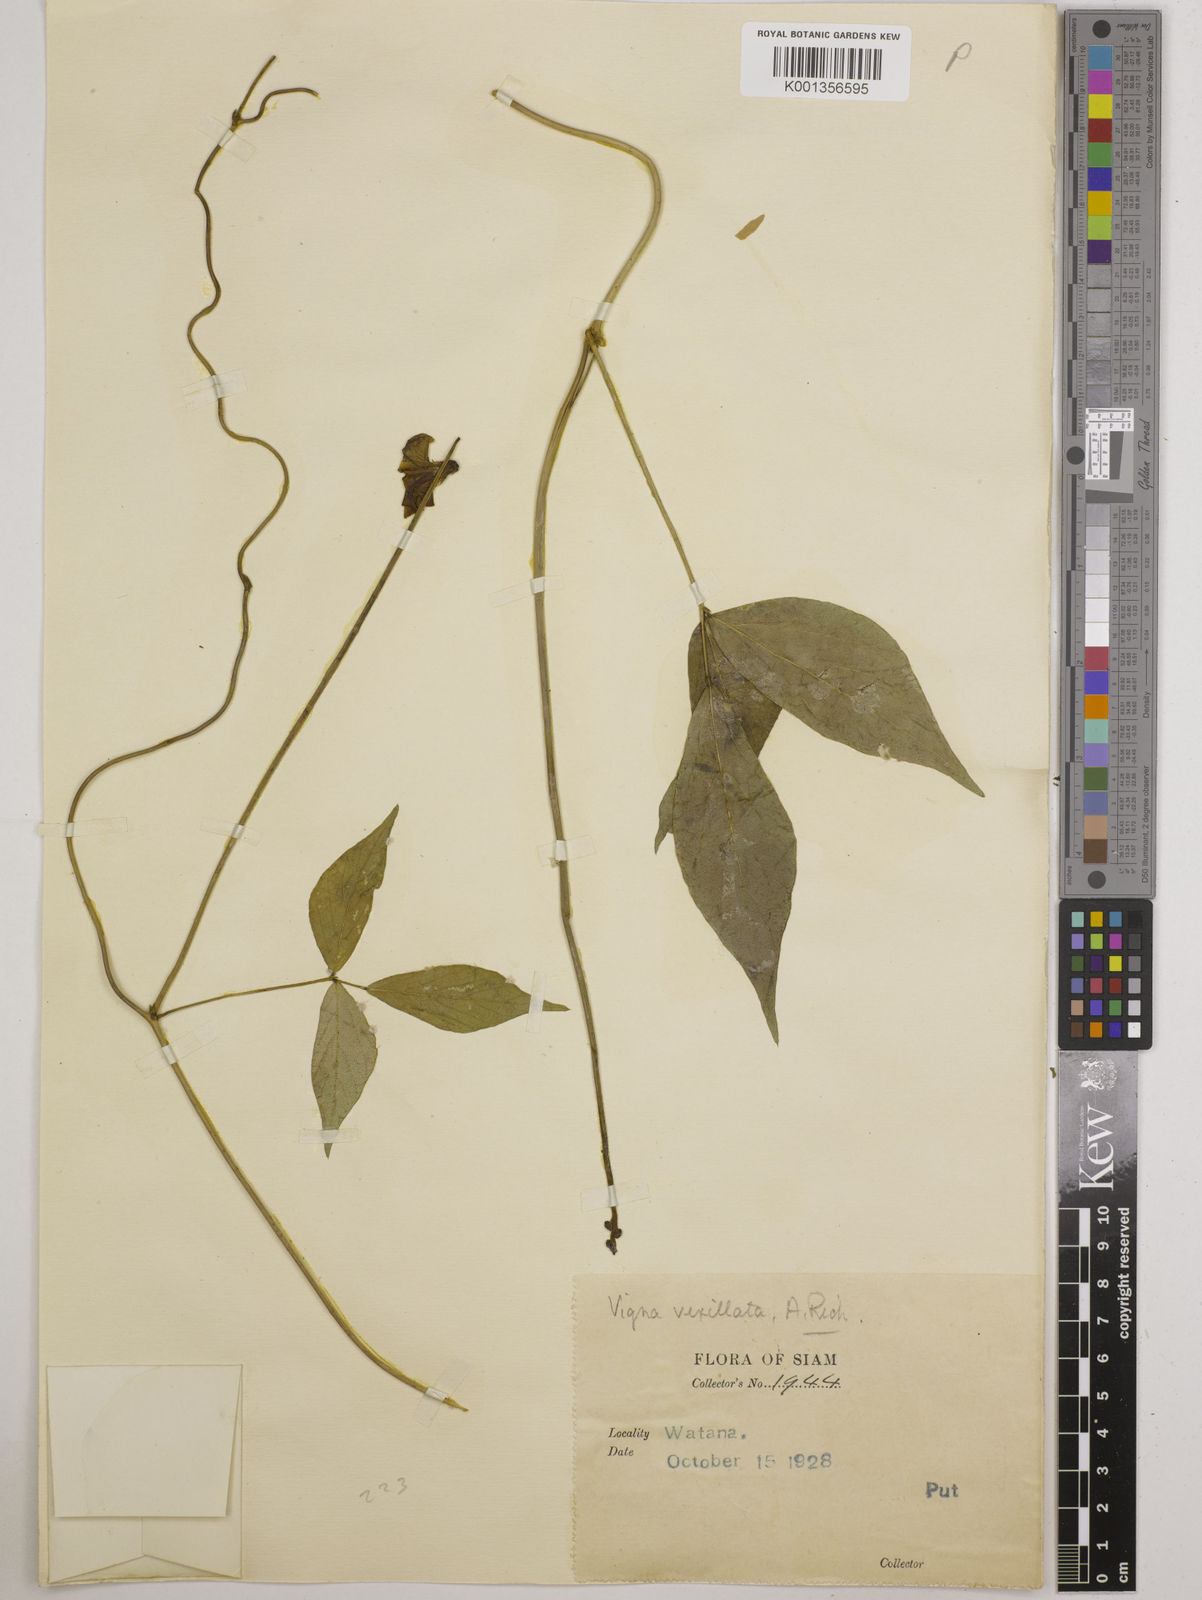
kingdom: Plantae
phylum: Tracheophyta
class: Magnoliopsida
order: Fabales
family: Fabaceae
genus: Vigna
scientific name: Vigna vexillata
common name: Zombi pea
